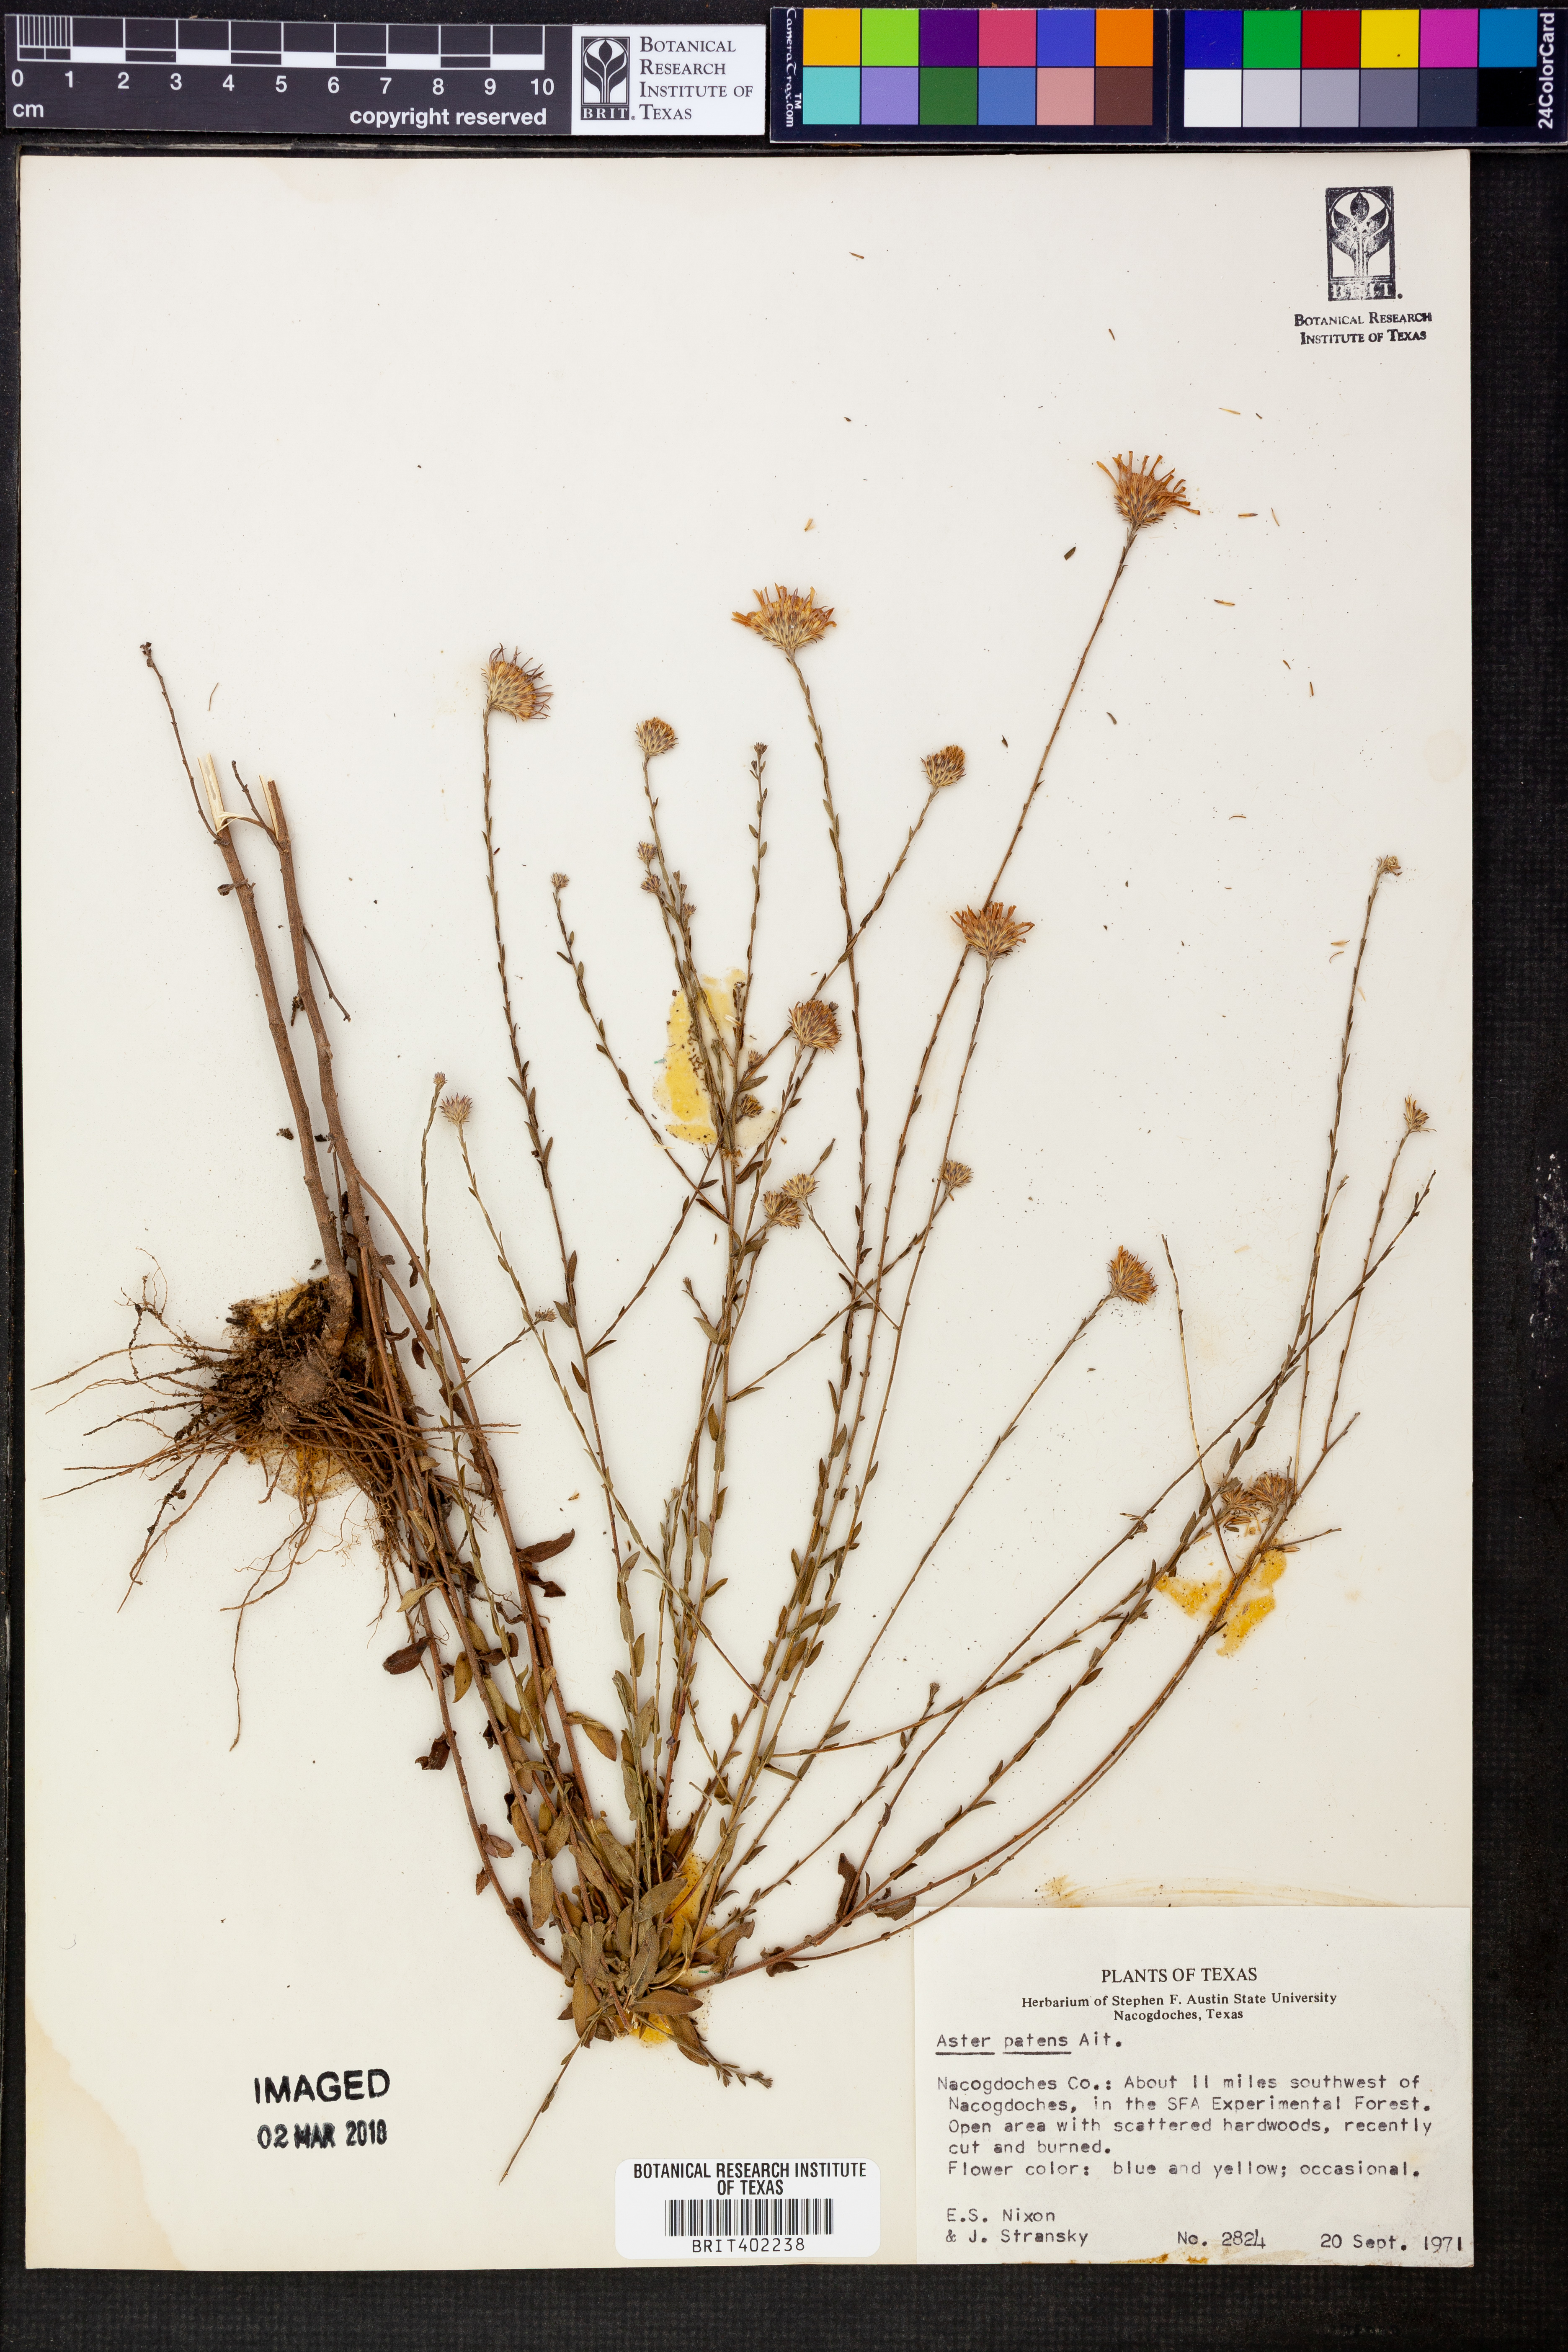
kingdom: Plantae
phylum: Tracheophyta
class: Magnoliopsida
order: Asterales
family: Asteraceae
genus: Symphyotrichum
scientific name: Symphyotrichum patens
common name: Late purple aster
